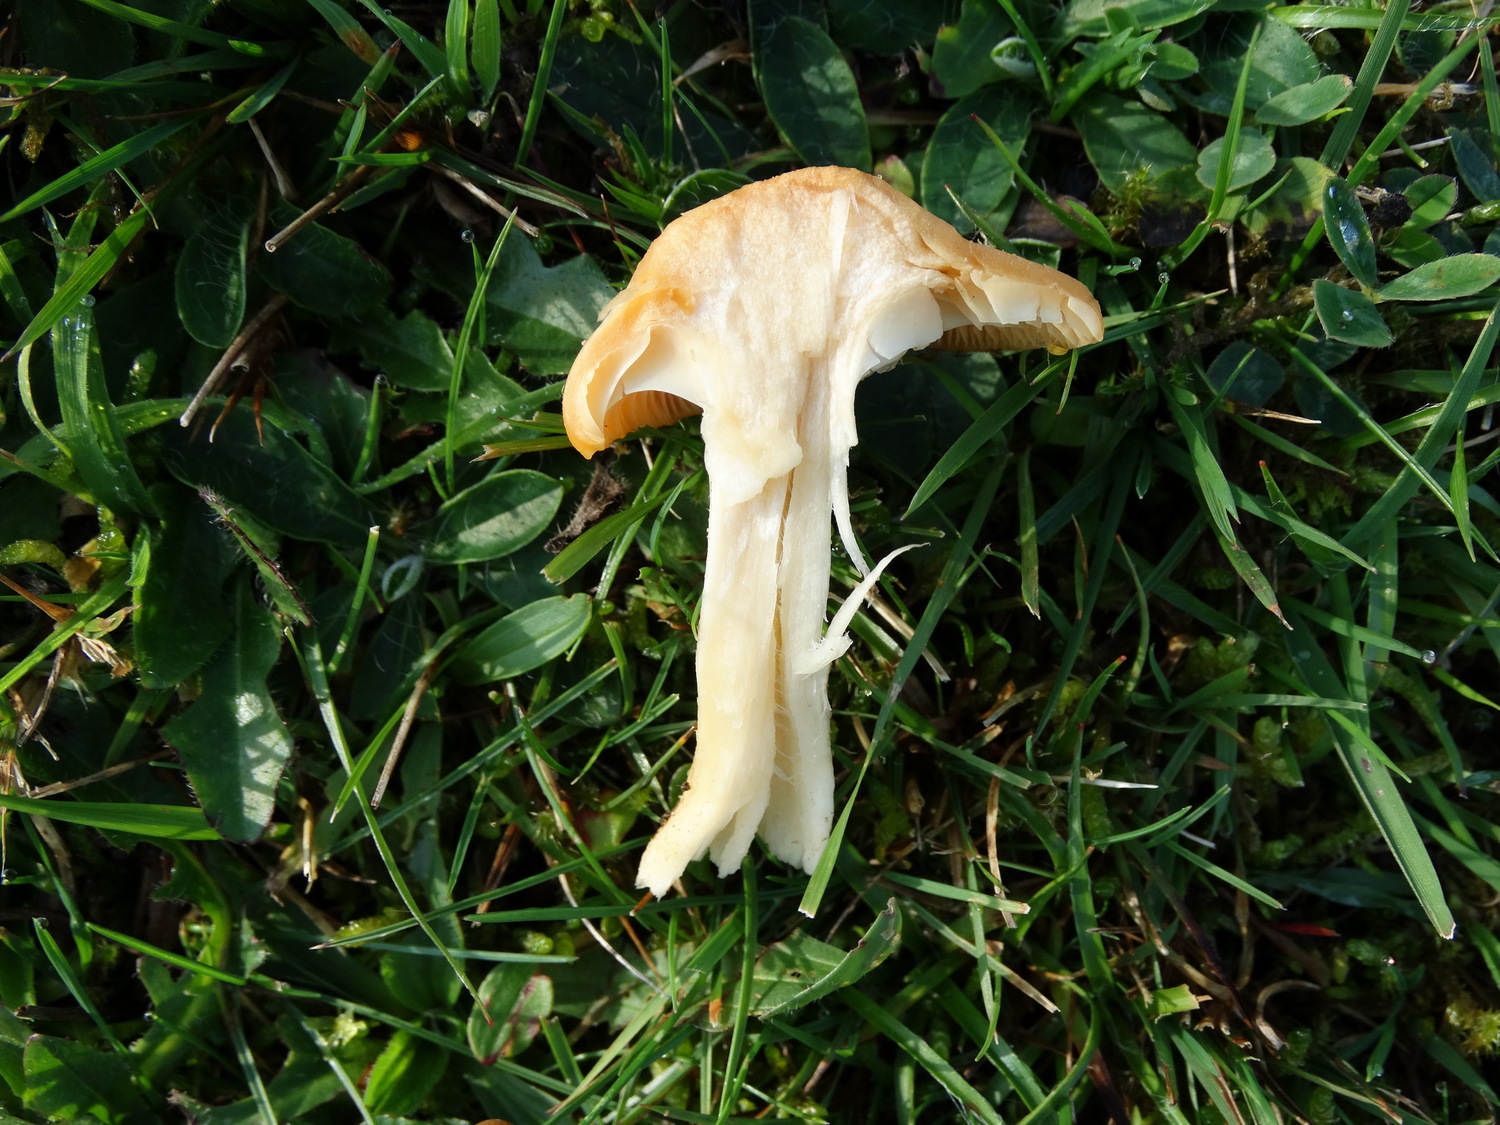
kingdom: Fungi
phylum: Basidiomycota
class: Agaricomycetes
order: Agaricales
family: Hygrophoraceae
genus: Cuphophyllus
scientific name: Cuphophyllus pratensis
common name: eng-vokshat
